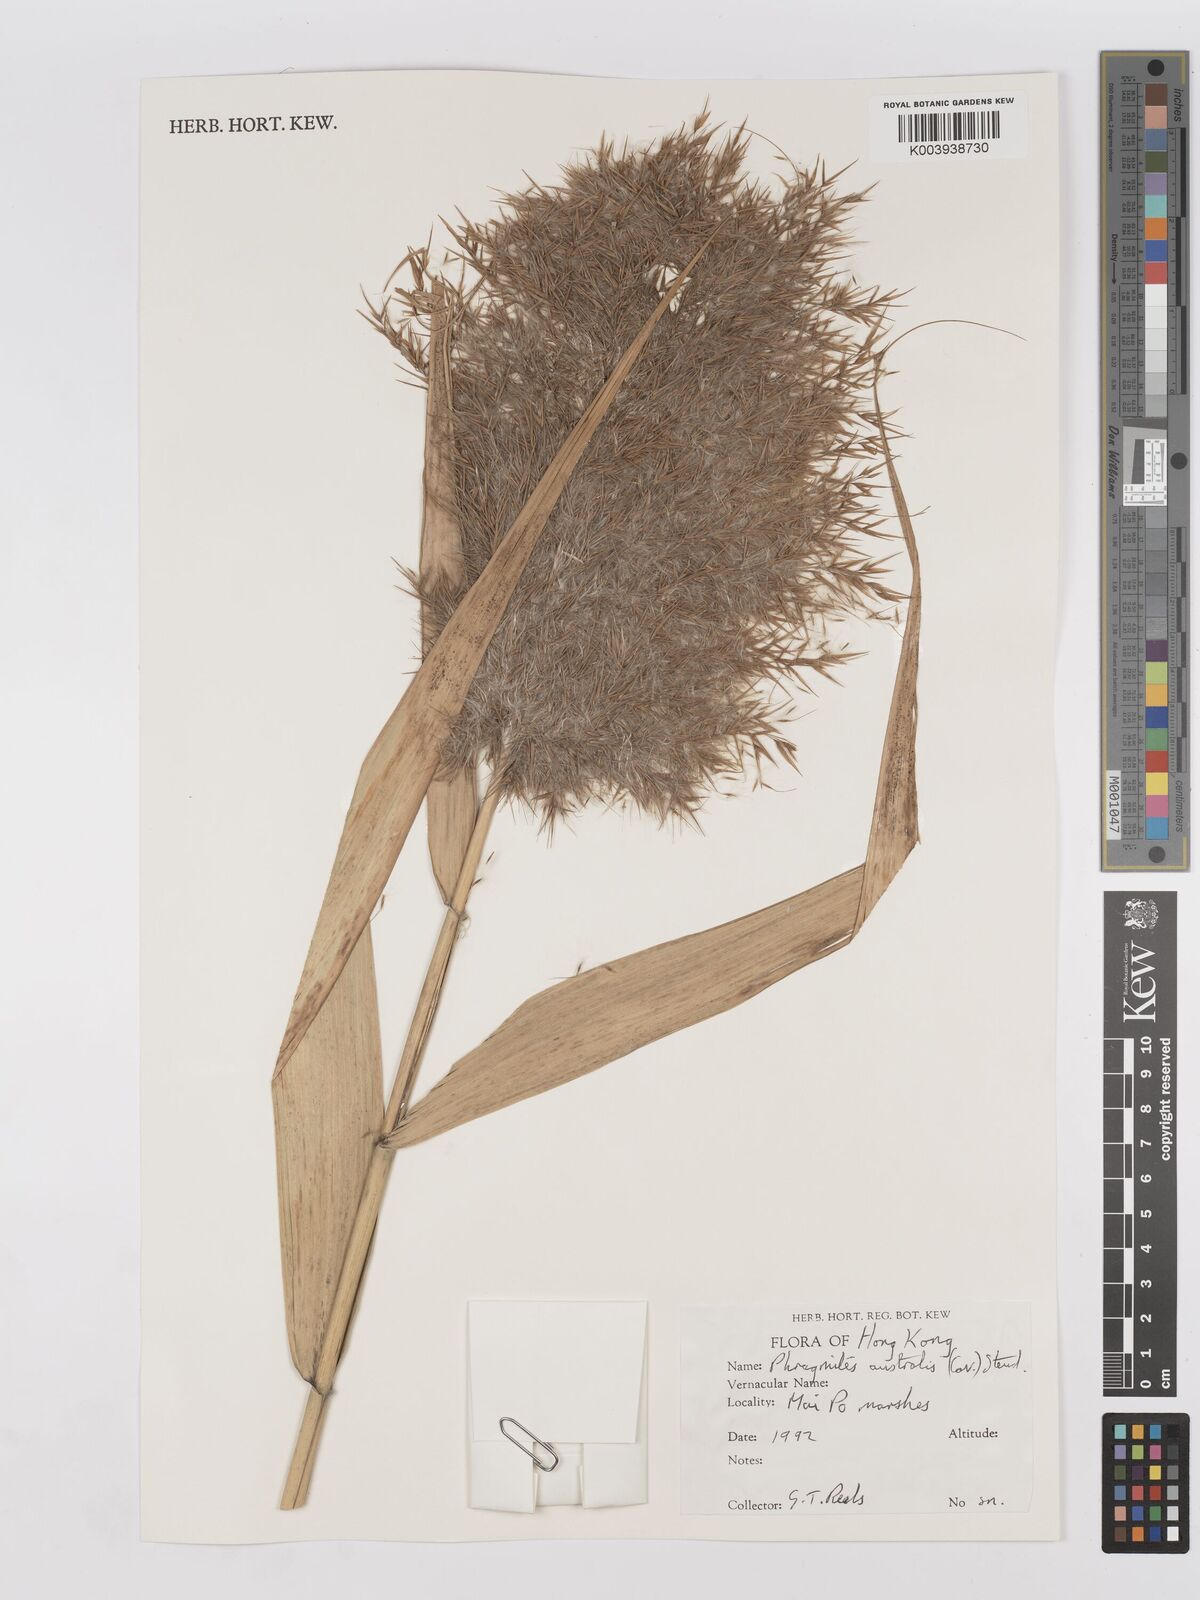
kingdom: Plantae
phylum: Tracheophyta
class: Liliopsida
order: Poales
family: Poaceae
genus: Phragmites
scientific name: Phragmites australis
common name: Common reed
